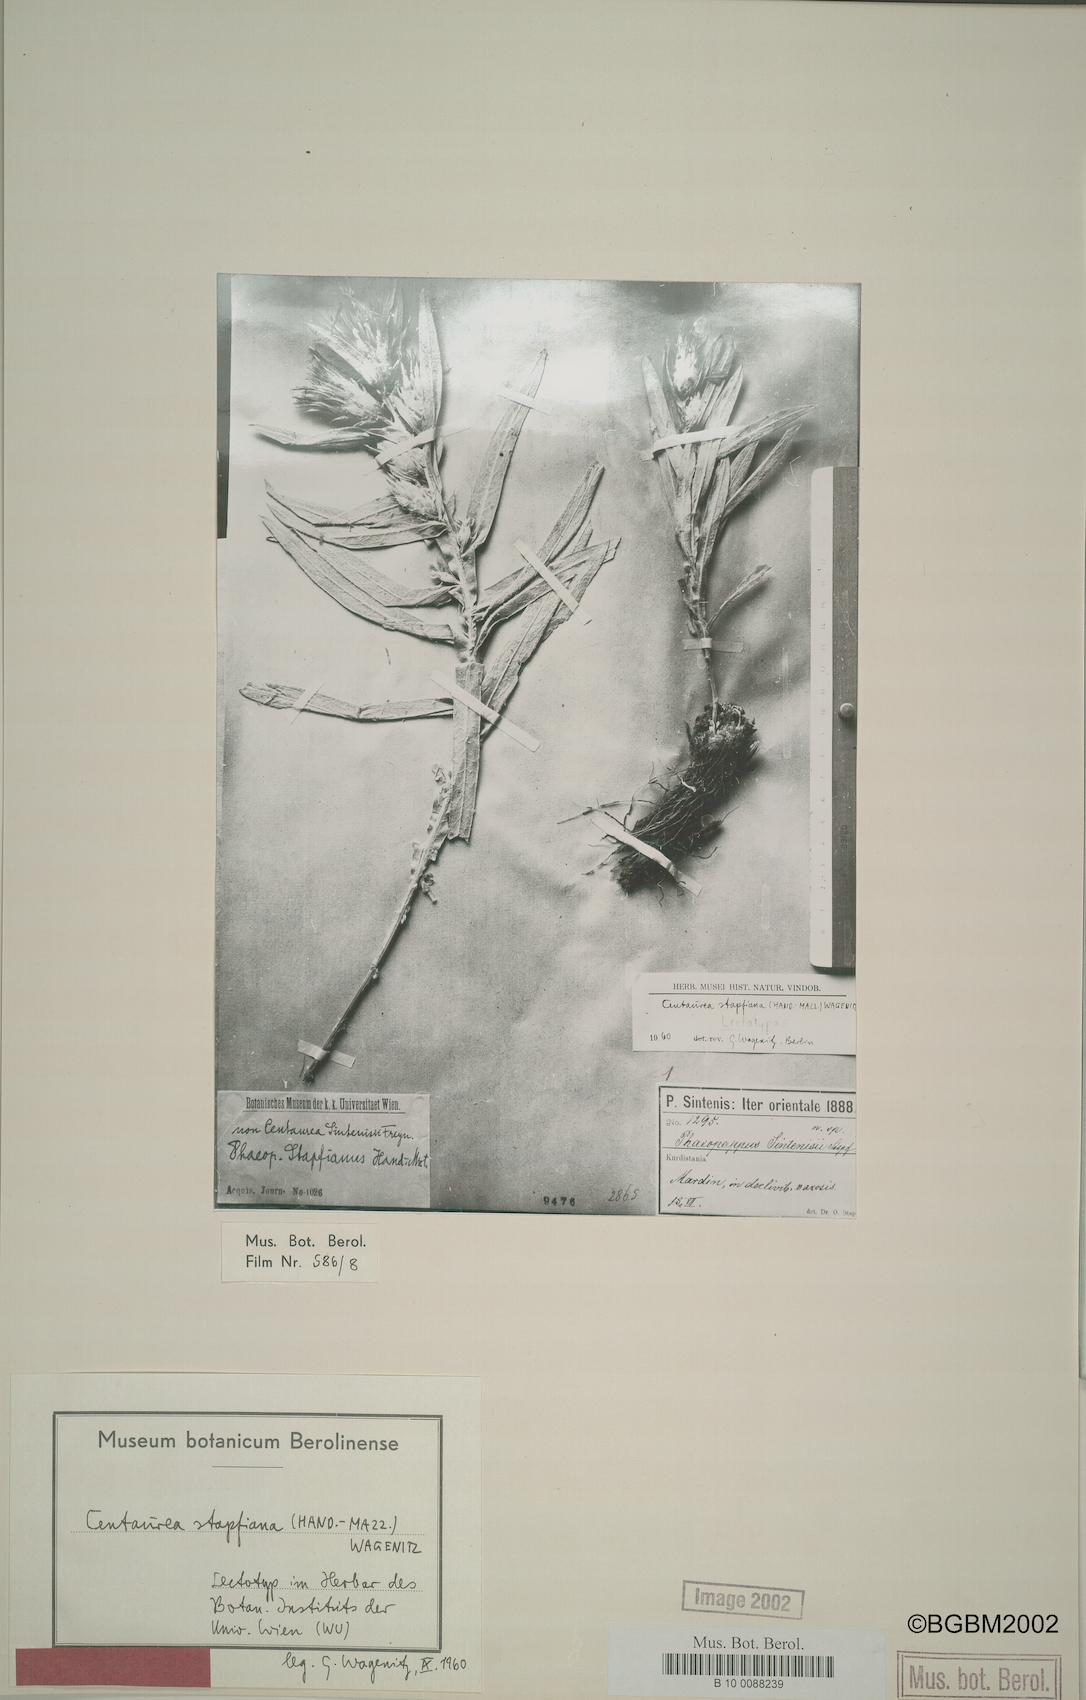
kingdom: Plantae
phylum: Tracheophyta
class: Magnoliopsida
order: Asterales
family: Asteraceae
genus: Centaurea
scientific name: Centaurea stapfiana
